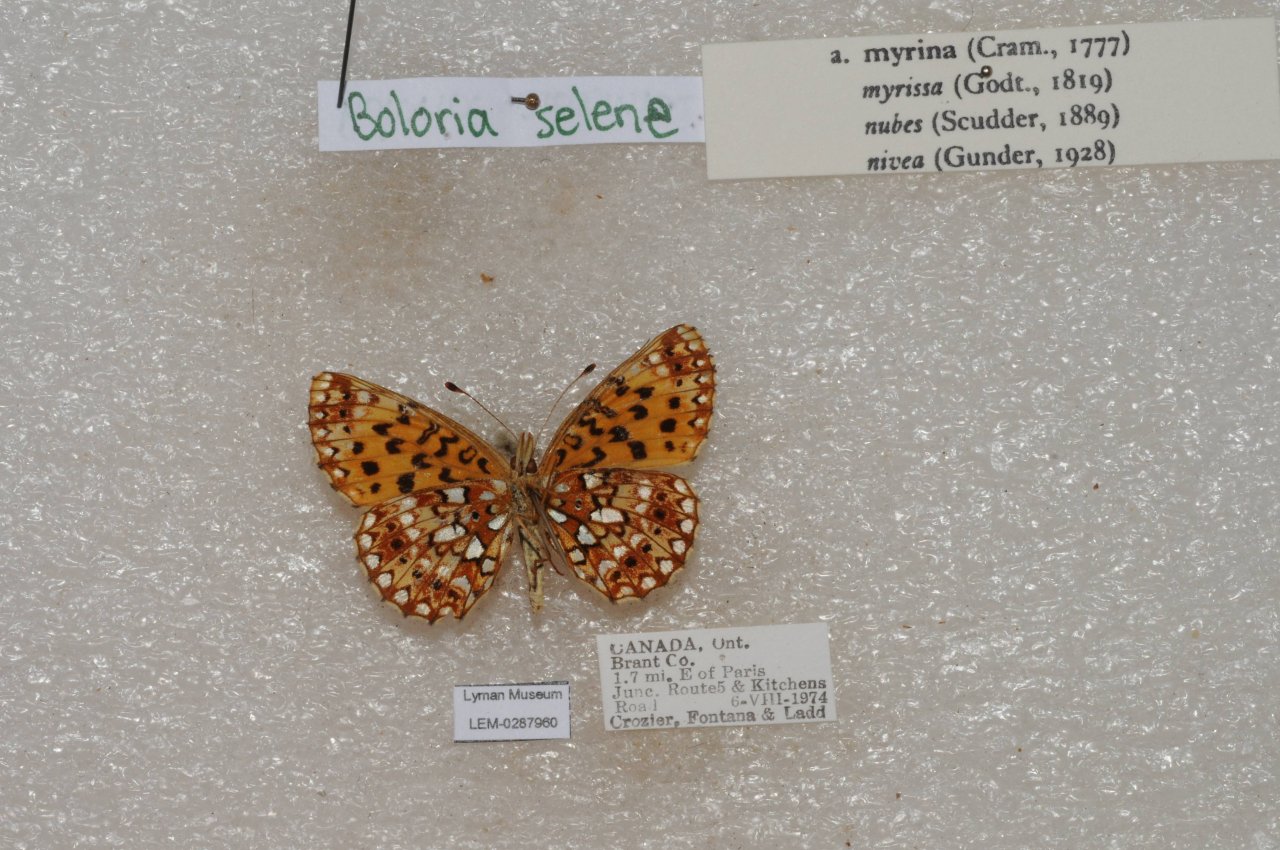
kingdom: Animalia
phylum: Arthropoda
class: Insecta
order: Lepidoptera
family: Nymphalidae
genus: Boloria
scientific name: Boloria selene
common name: Silver-bordered Fritillary
